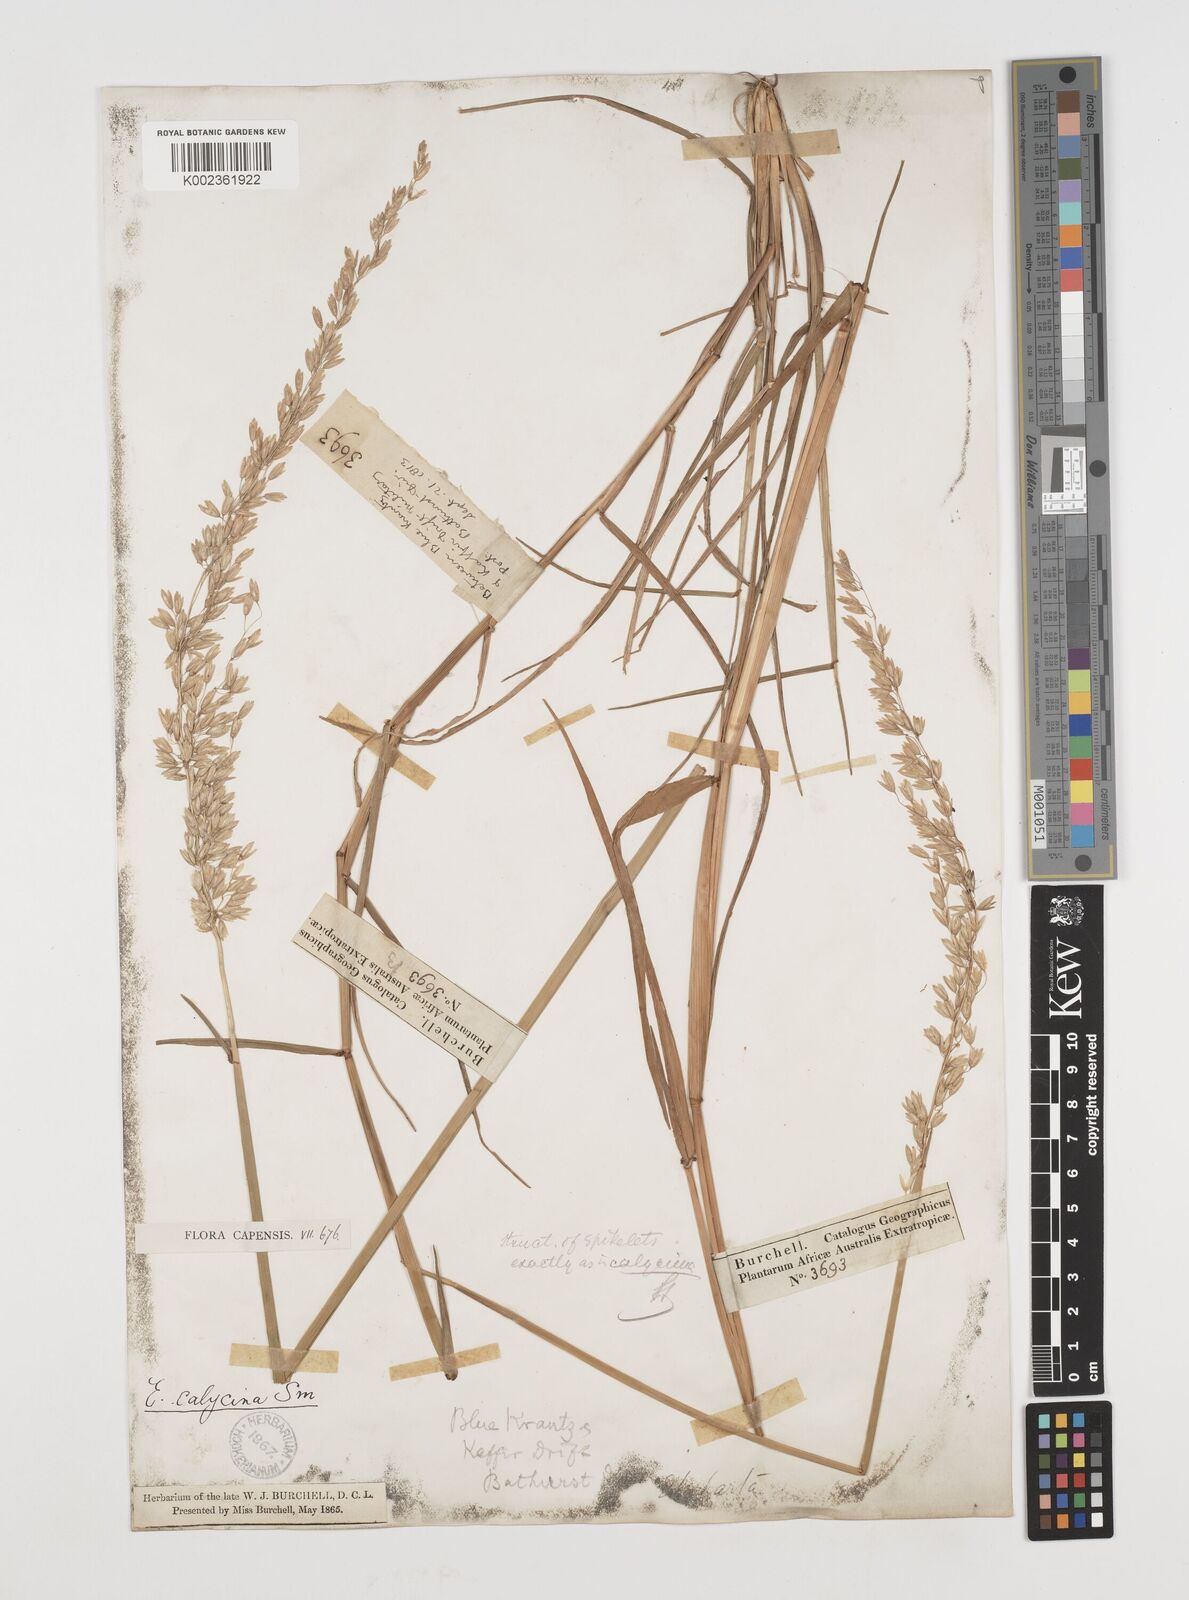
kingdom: Plantae
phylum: Tracheophyta
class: Liliopsida
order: Poales
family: Poaceae
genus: Ehrharta
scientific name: Ehrharta calycina
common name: Perennial veldtgrass
